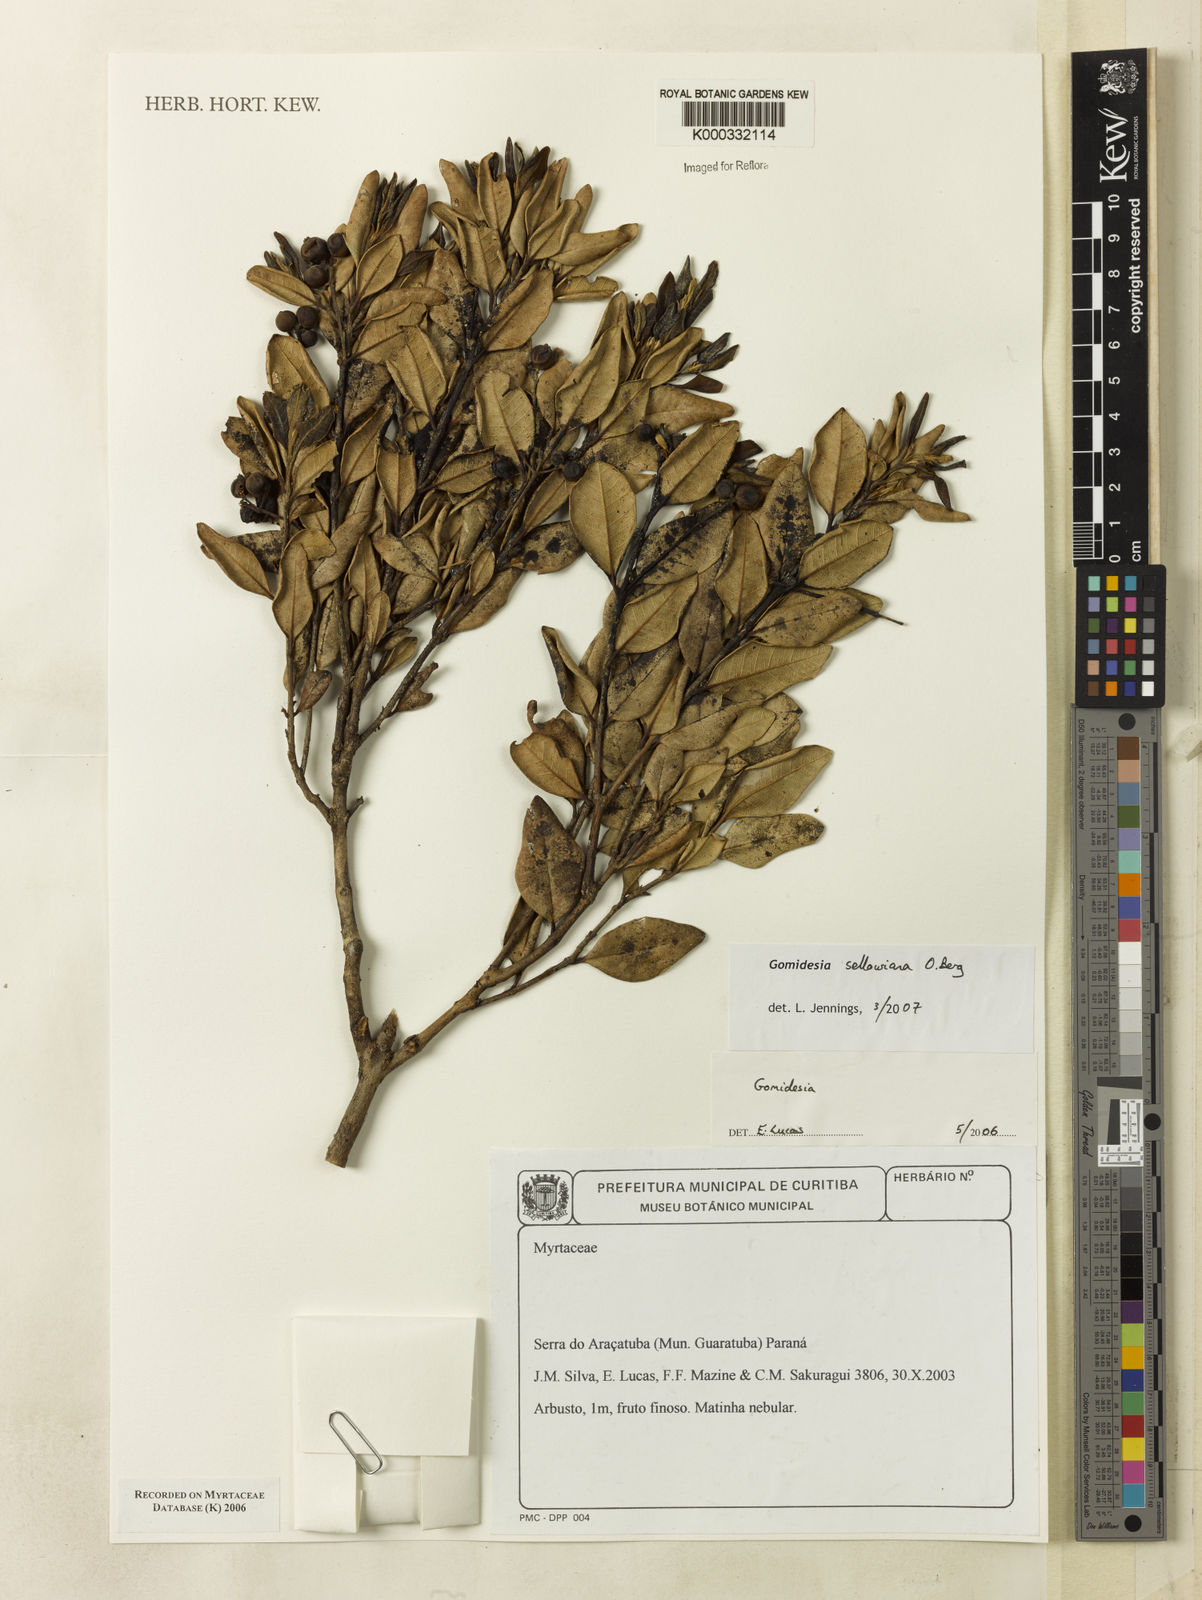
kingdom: Plantae
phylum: Tracheophyta
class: Magnoliopsida
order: Myrtales
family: Myrtaceae
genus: Myrcia
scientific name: Myrcia
